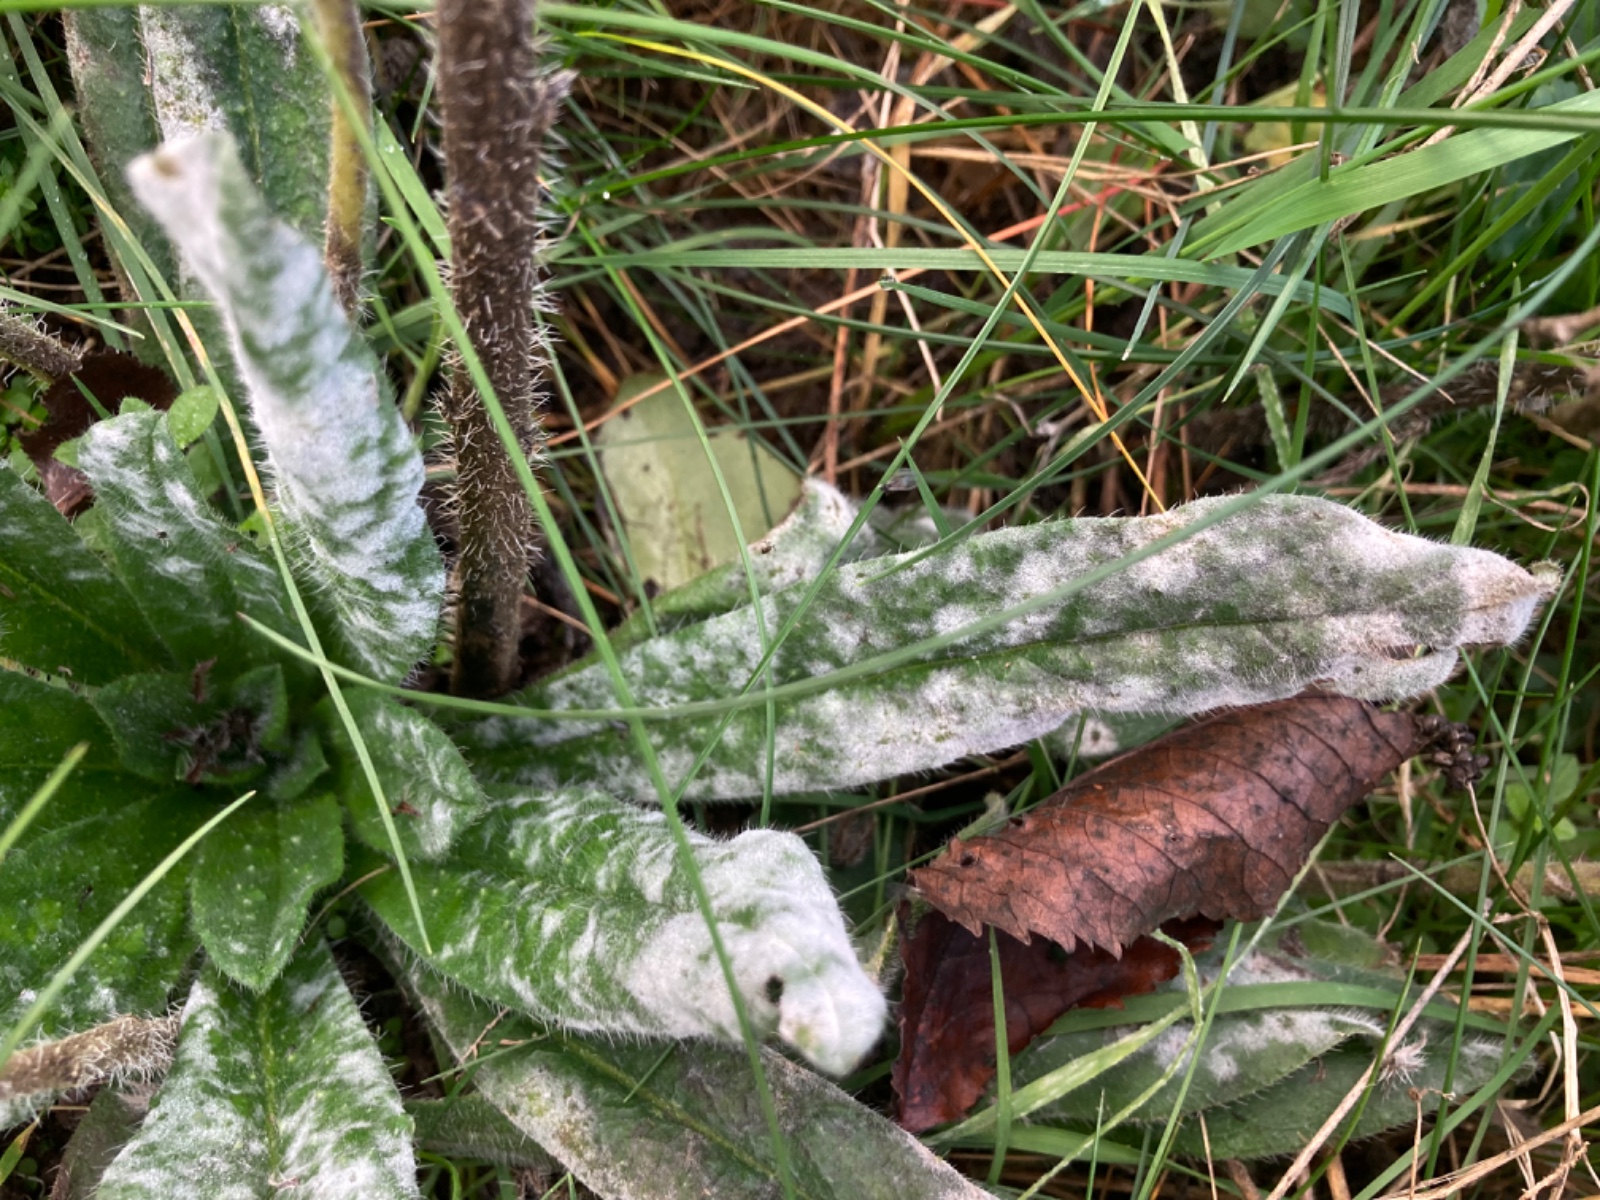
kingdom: Fungi
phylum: Ascomycota
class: Leotiomycetes
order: Helotiales
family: Erysiphaceae
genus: Golovinomyces
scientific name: Golovinomyces asperifoliorum
